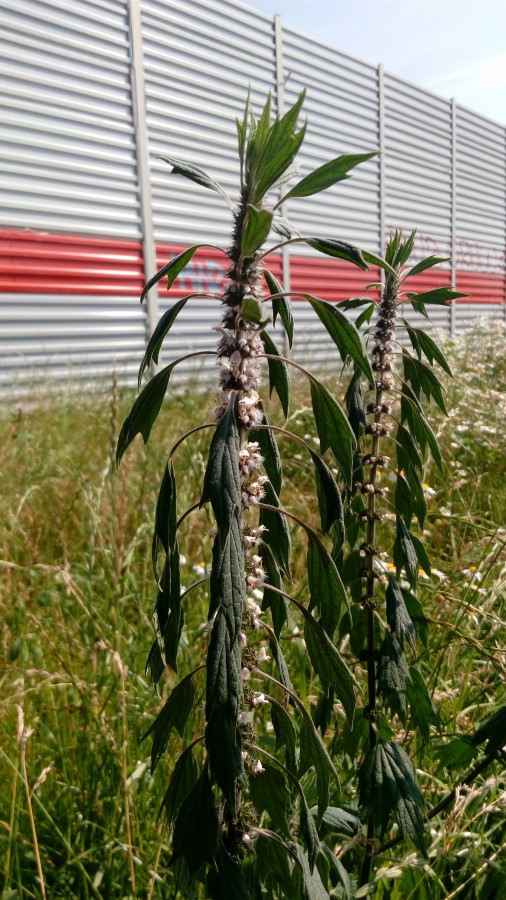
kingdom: Plantae
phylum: Tracheophyta
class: Magnoliopsida
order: Lamiales
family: Lamiaceae
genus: Leonurus
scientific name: Leonurus quinquelobatus
